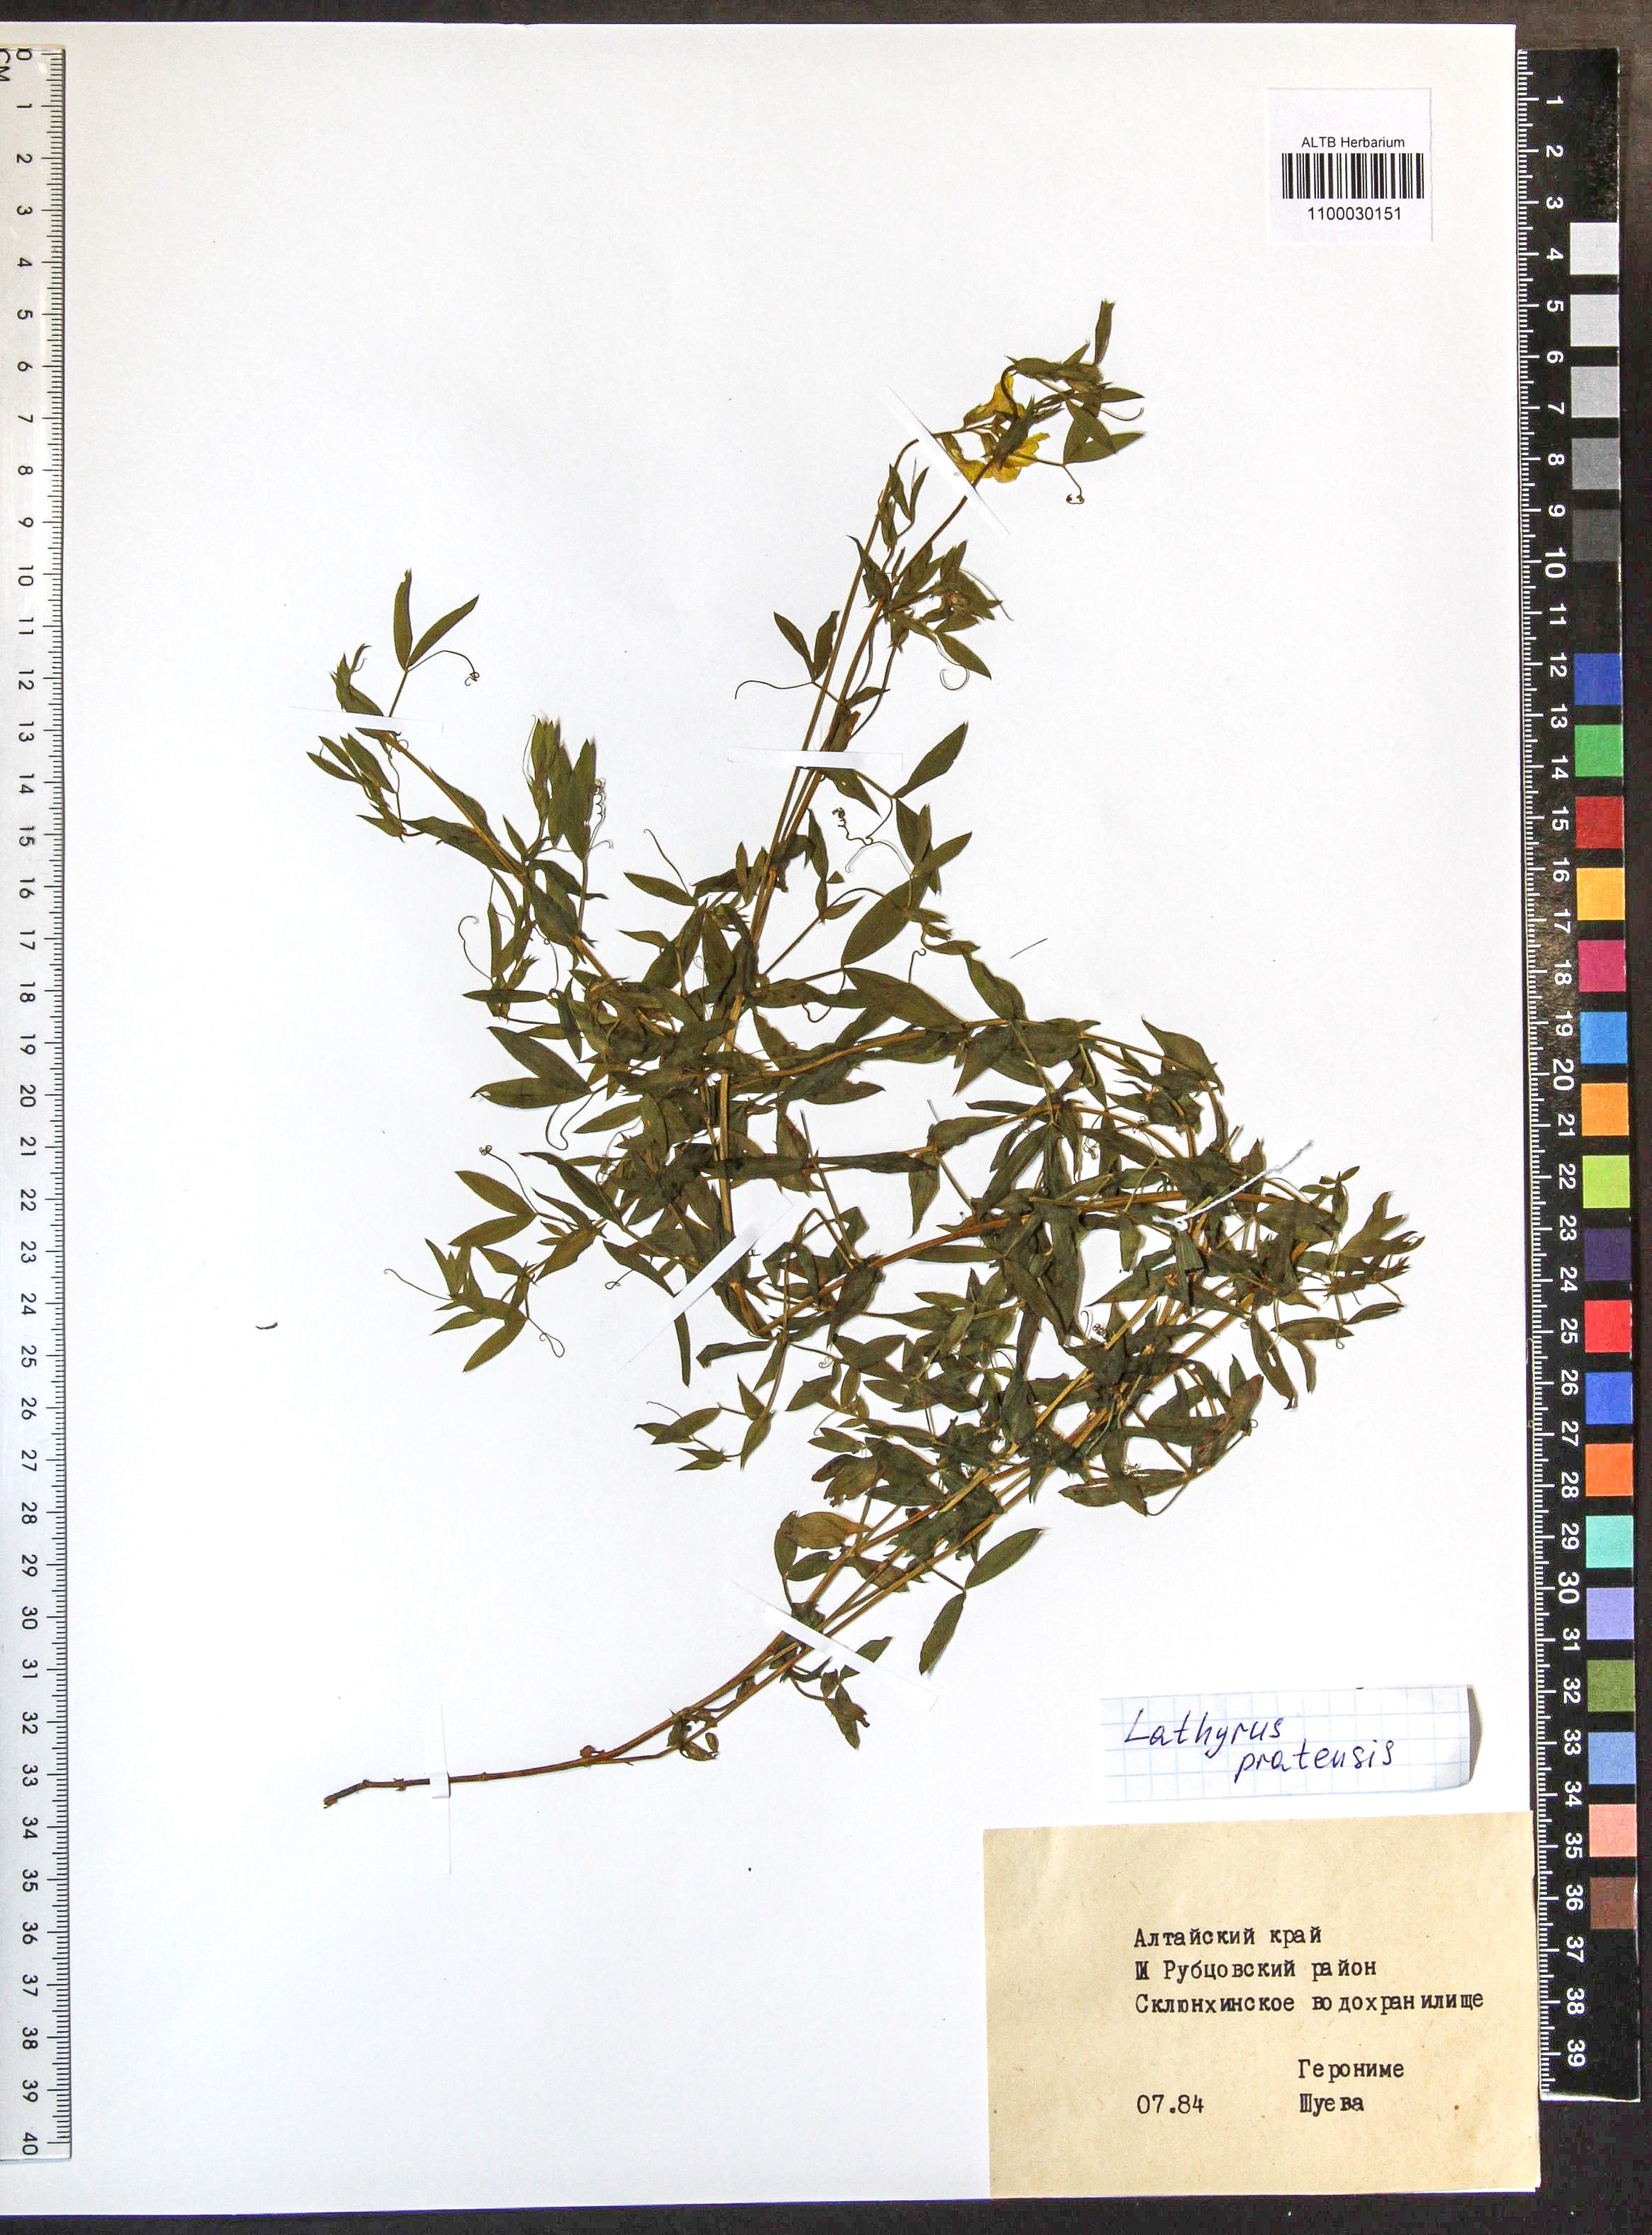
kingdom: Plantae
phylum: Tracheophyta
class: Magnoliopsida
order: Fabales
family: Fabaceae
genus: Lathyrus
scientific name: Lathyrus pratensis
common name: Meadow vetchling
